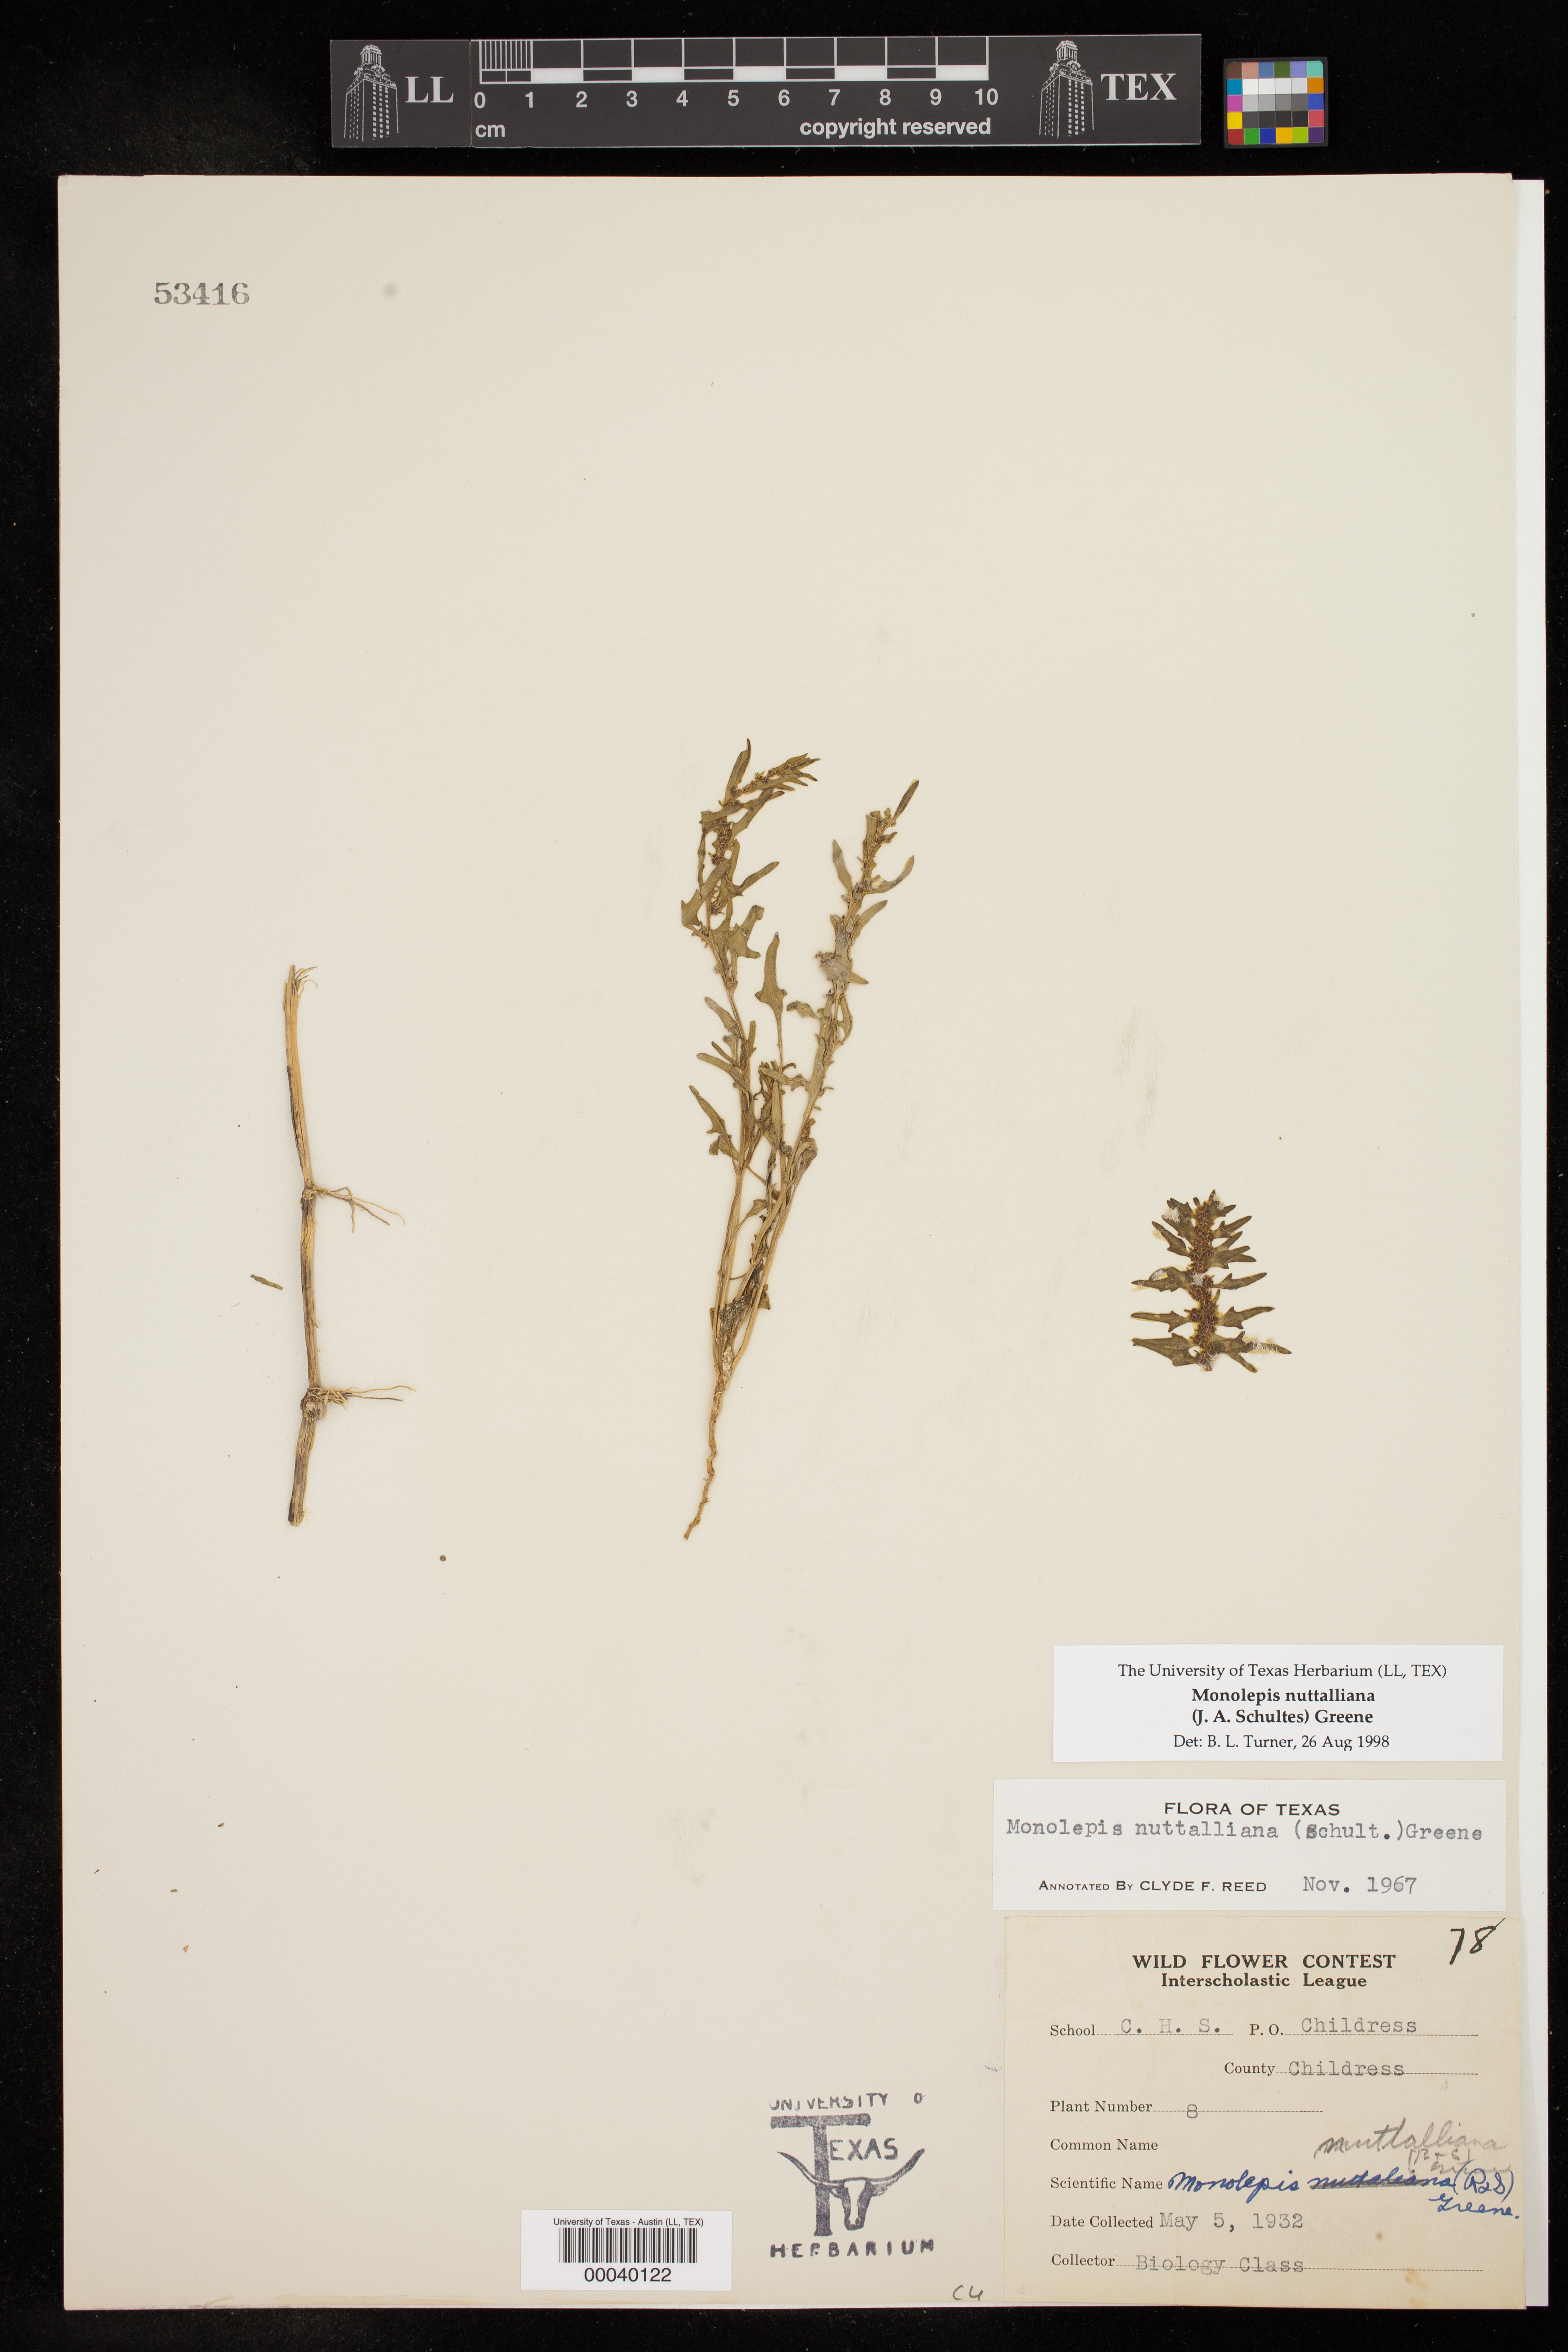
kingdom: Plantae
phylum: Tracheophyta
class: Magnoliopsida
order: Caryophyllales
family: Amaranthaceae
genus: Blitum
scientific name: Blitum nuttallianum
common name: Poverty-weed
